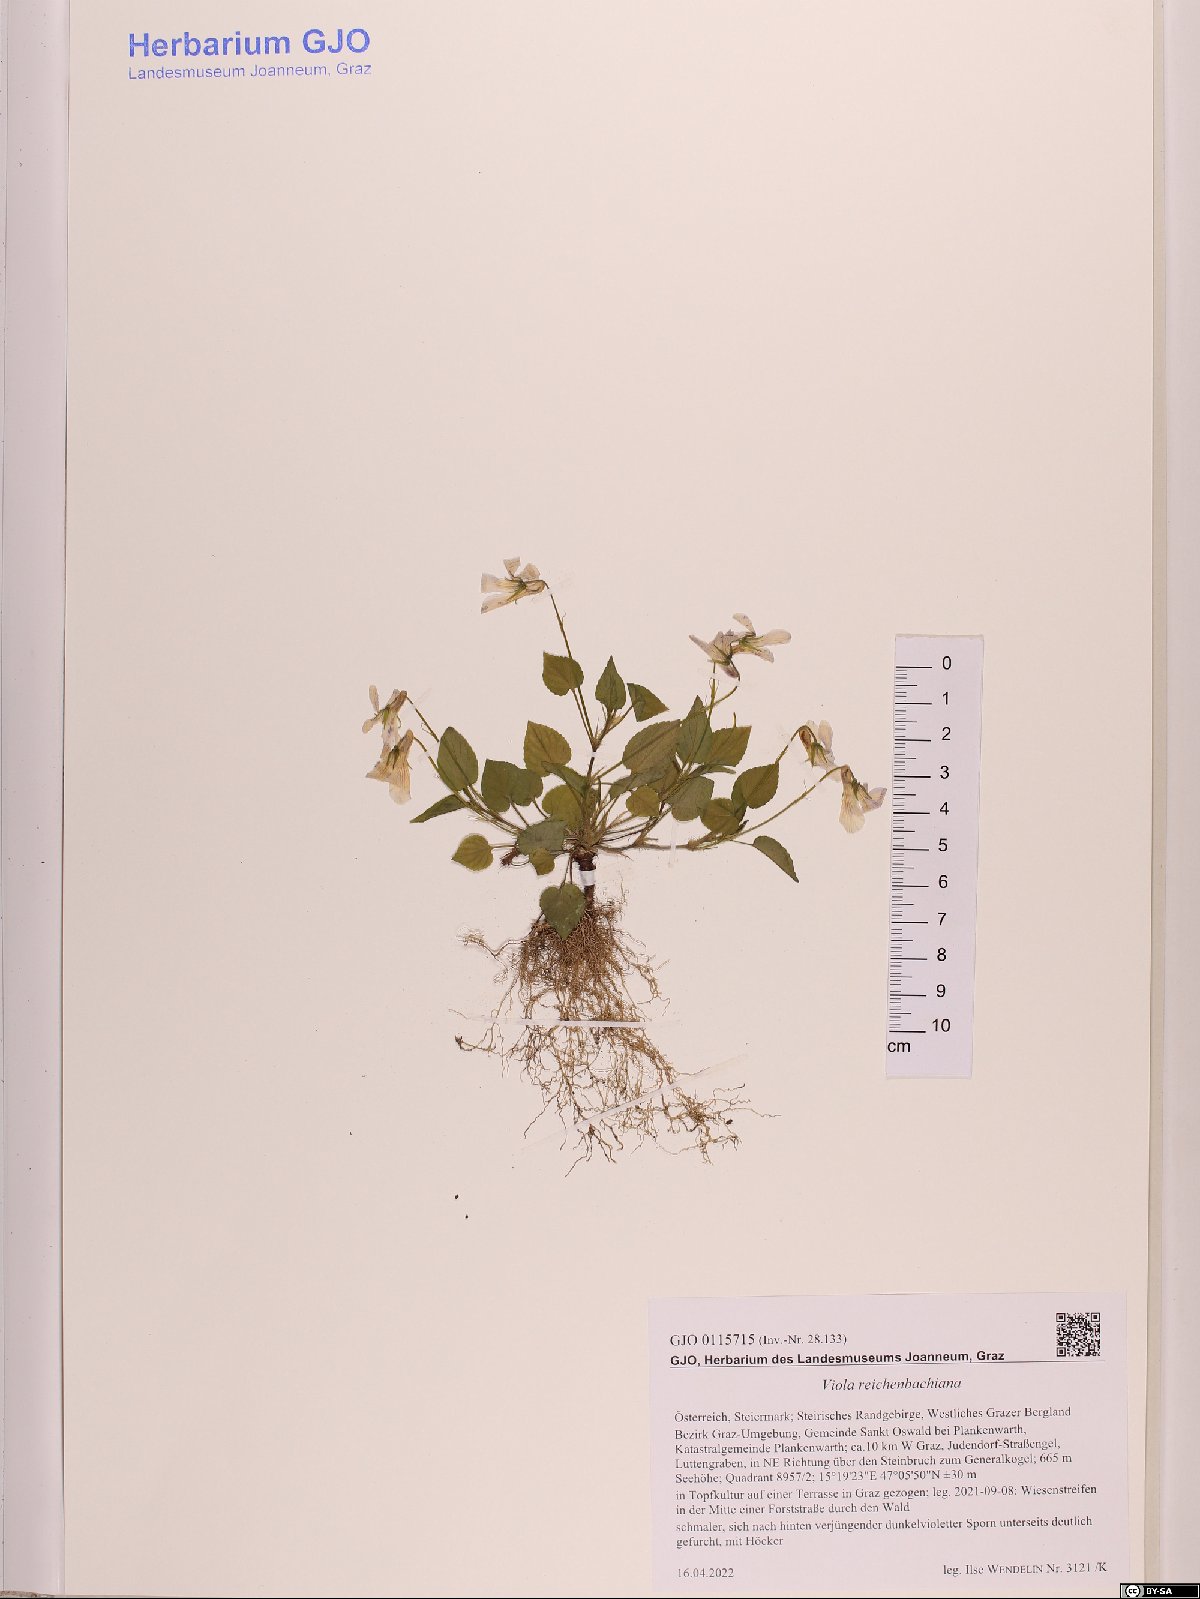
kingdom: Plantae
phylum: Tracheophyta
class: Magnoliopsida
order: Malpighiales
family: Violaceae
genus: Viola
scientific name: Viola reichenbachiana
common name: Early dog-violet
